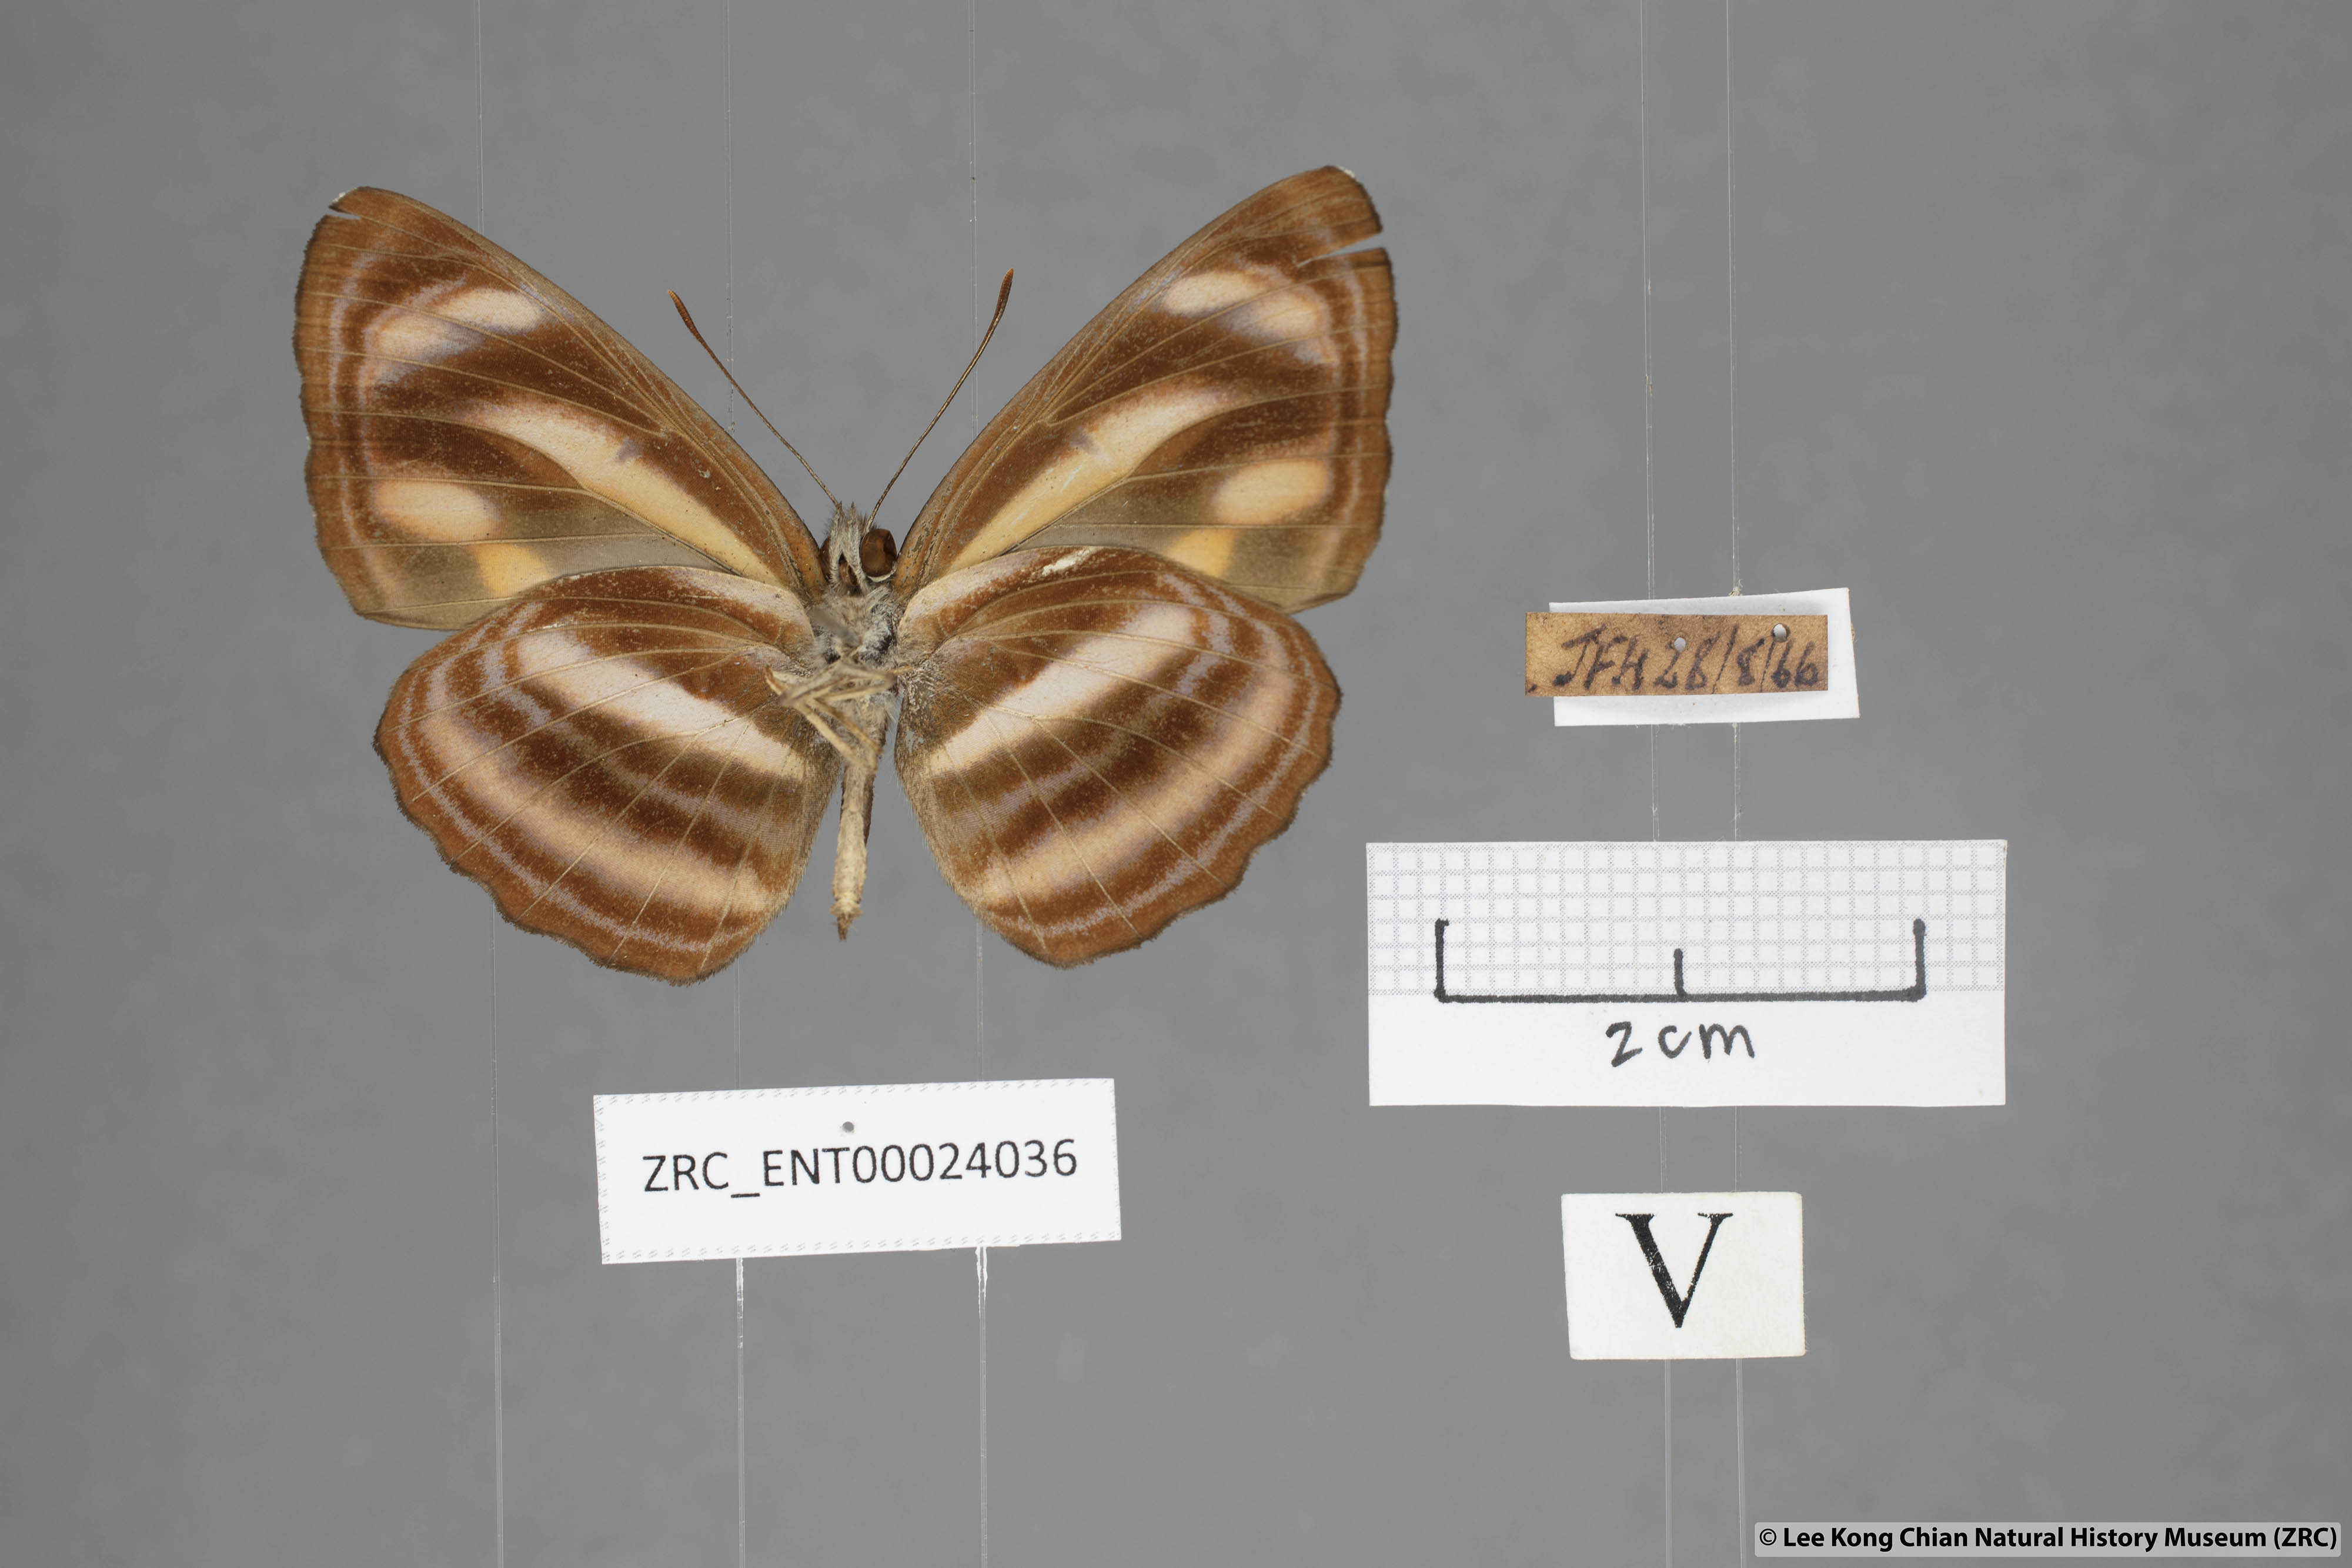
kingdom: Animalia
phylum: Arthropoda
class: Insecta
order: Lepidoptera
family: Nymphalidae
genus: Neptis
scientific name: Neptis miah
